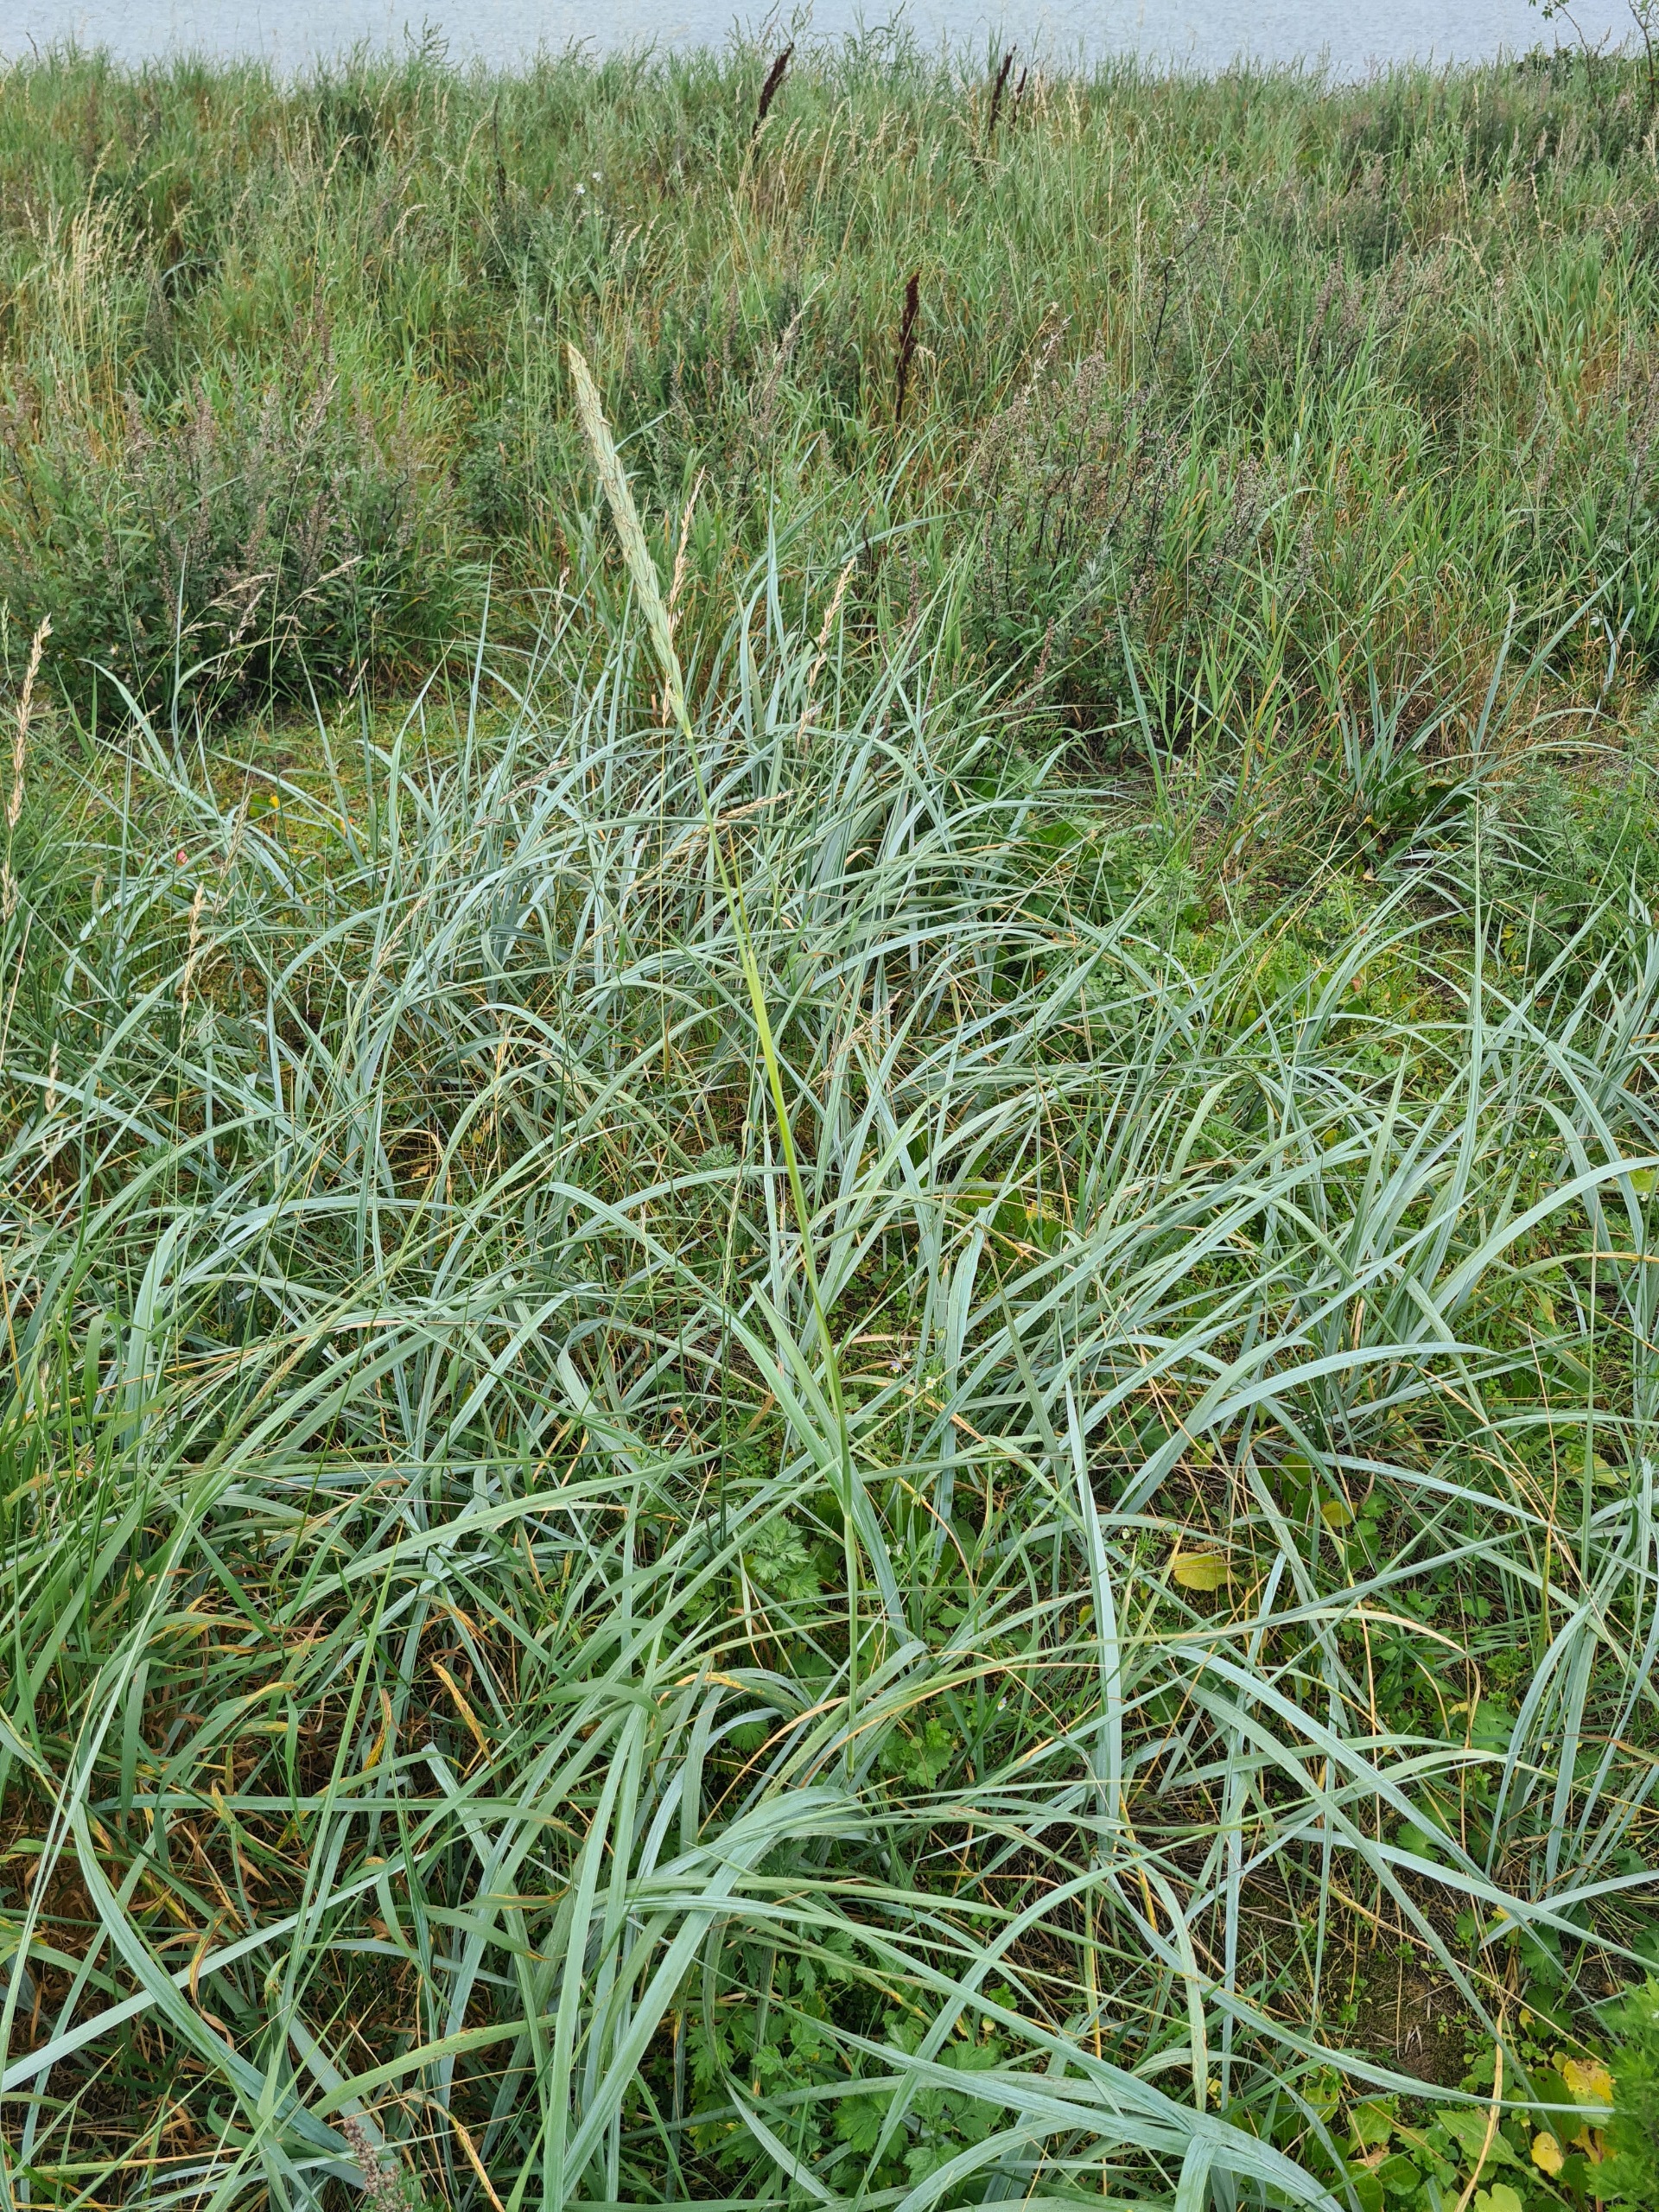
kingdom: Plantae
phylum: Tracheophyta
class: Liliopsida
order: Poales
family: Poaceae
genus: Leymus
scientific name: Leymus arenarius
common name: Marehalm
